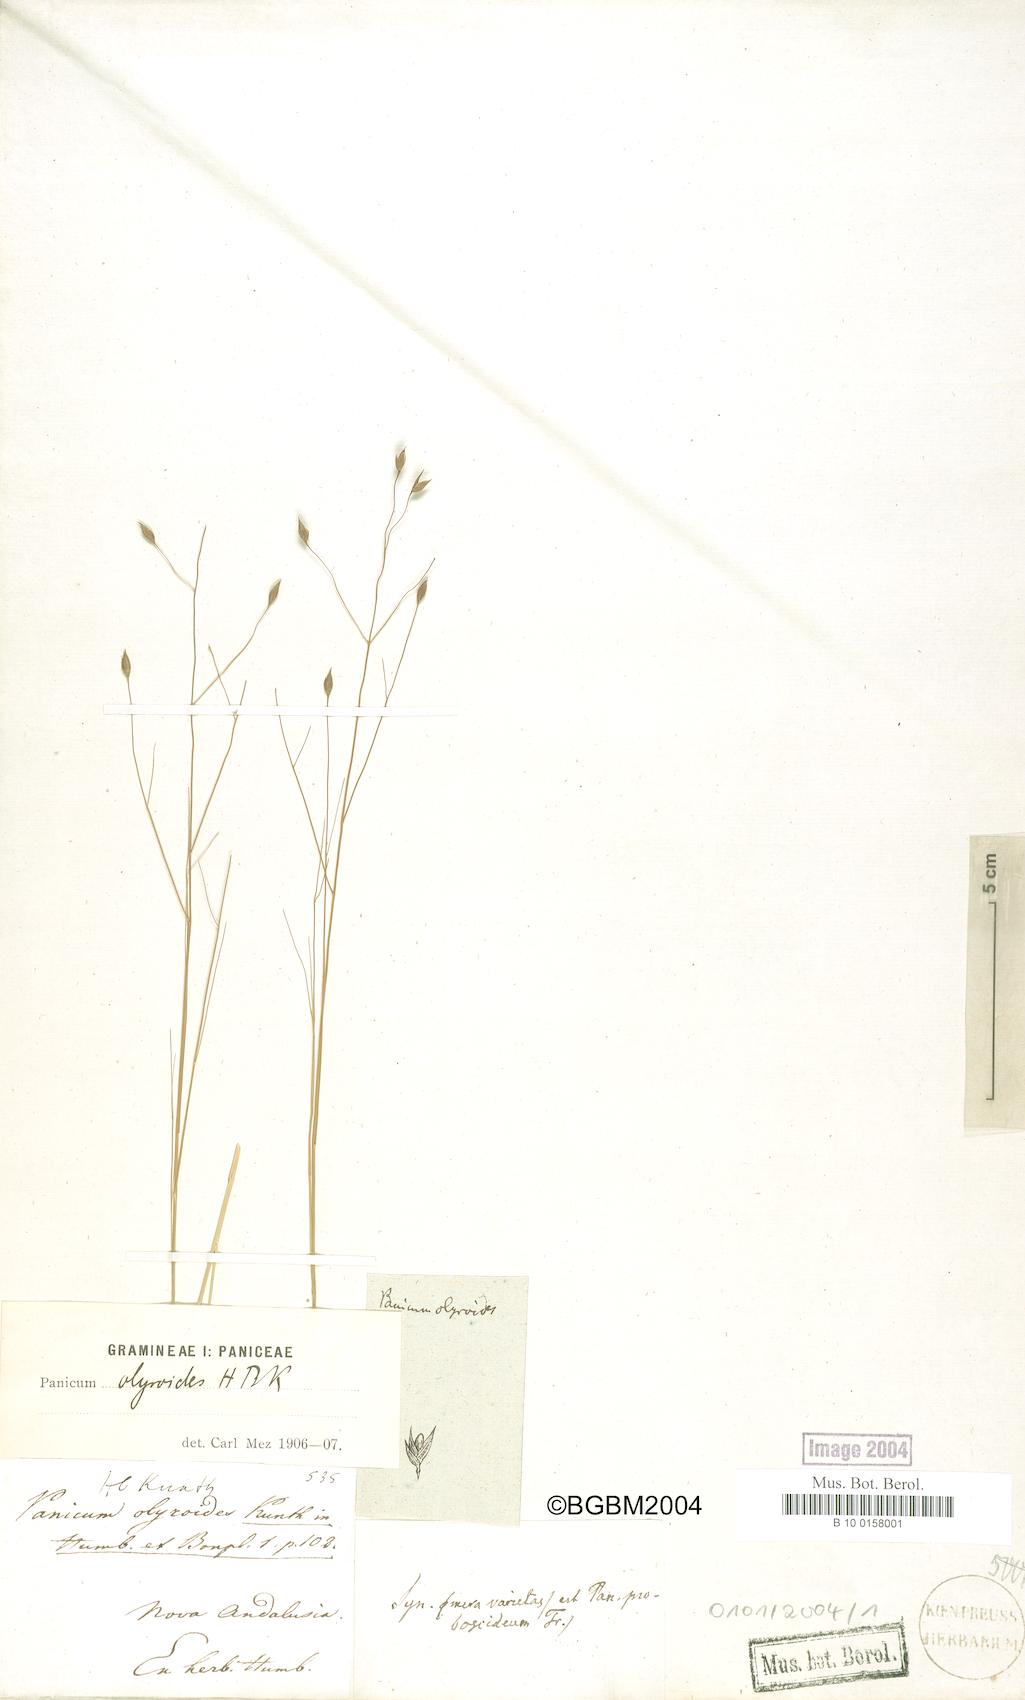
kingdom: Plantae
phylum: Tracheophyta
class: Liliopsida
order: Poales
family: Poaceae
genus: Panicum
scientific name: Panicum olyroides
